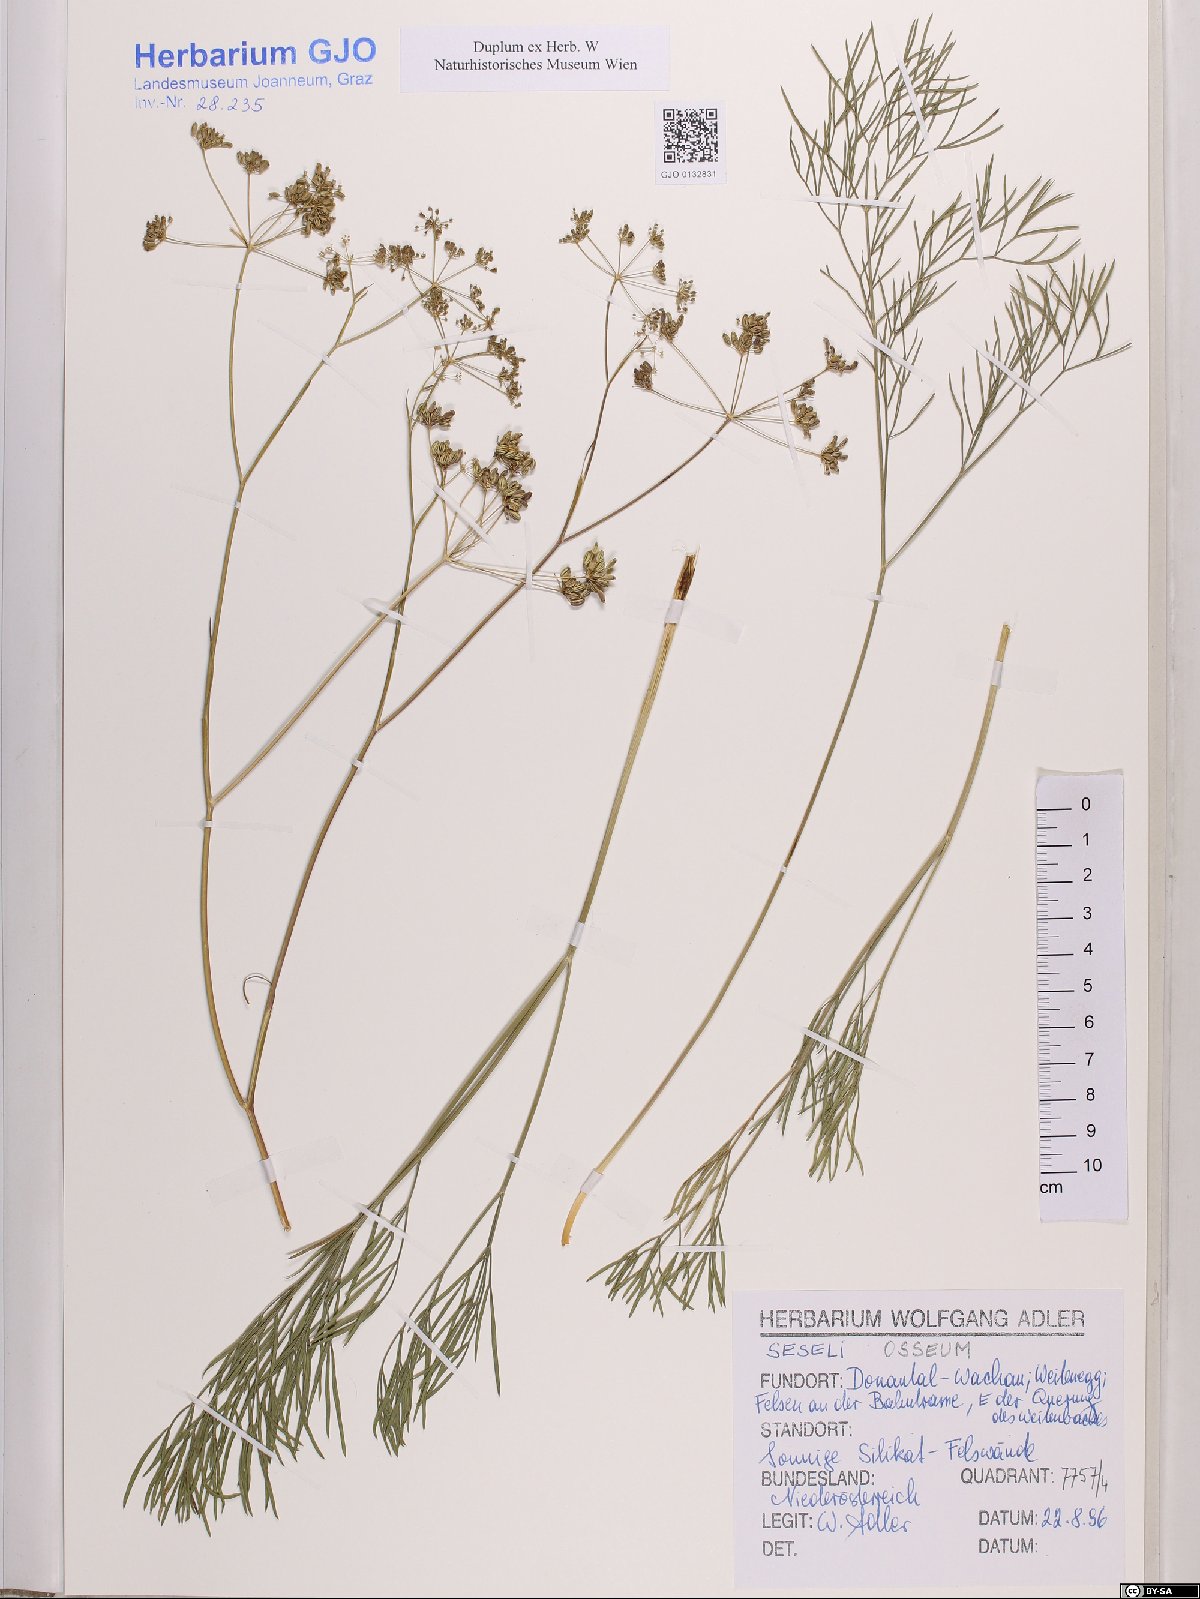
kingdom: Plantae
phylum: Tracheophyta
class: Magnoliopsida
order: Apiales
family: Apiaceae
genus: Seseli
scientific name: Seseli osseum
